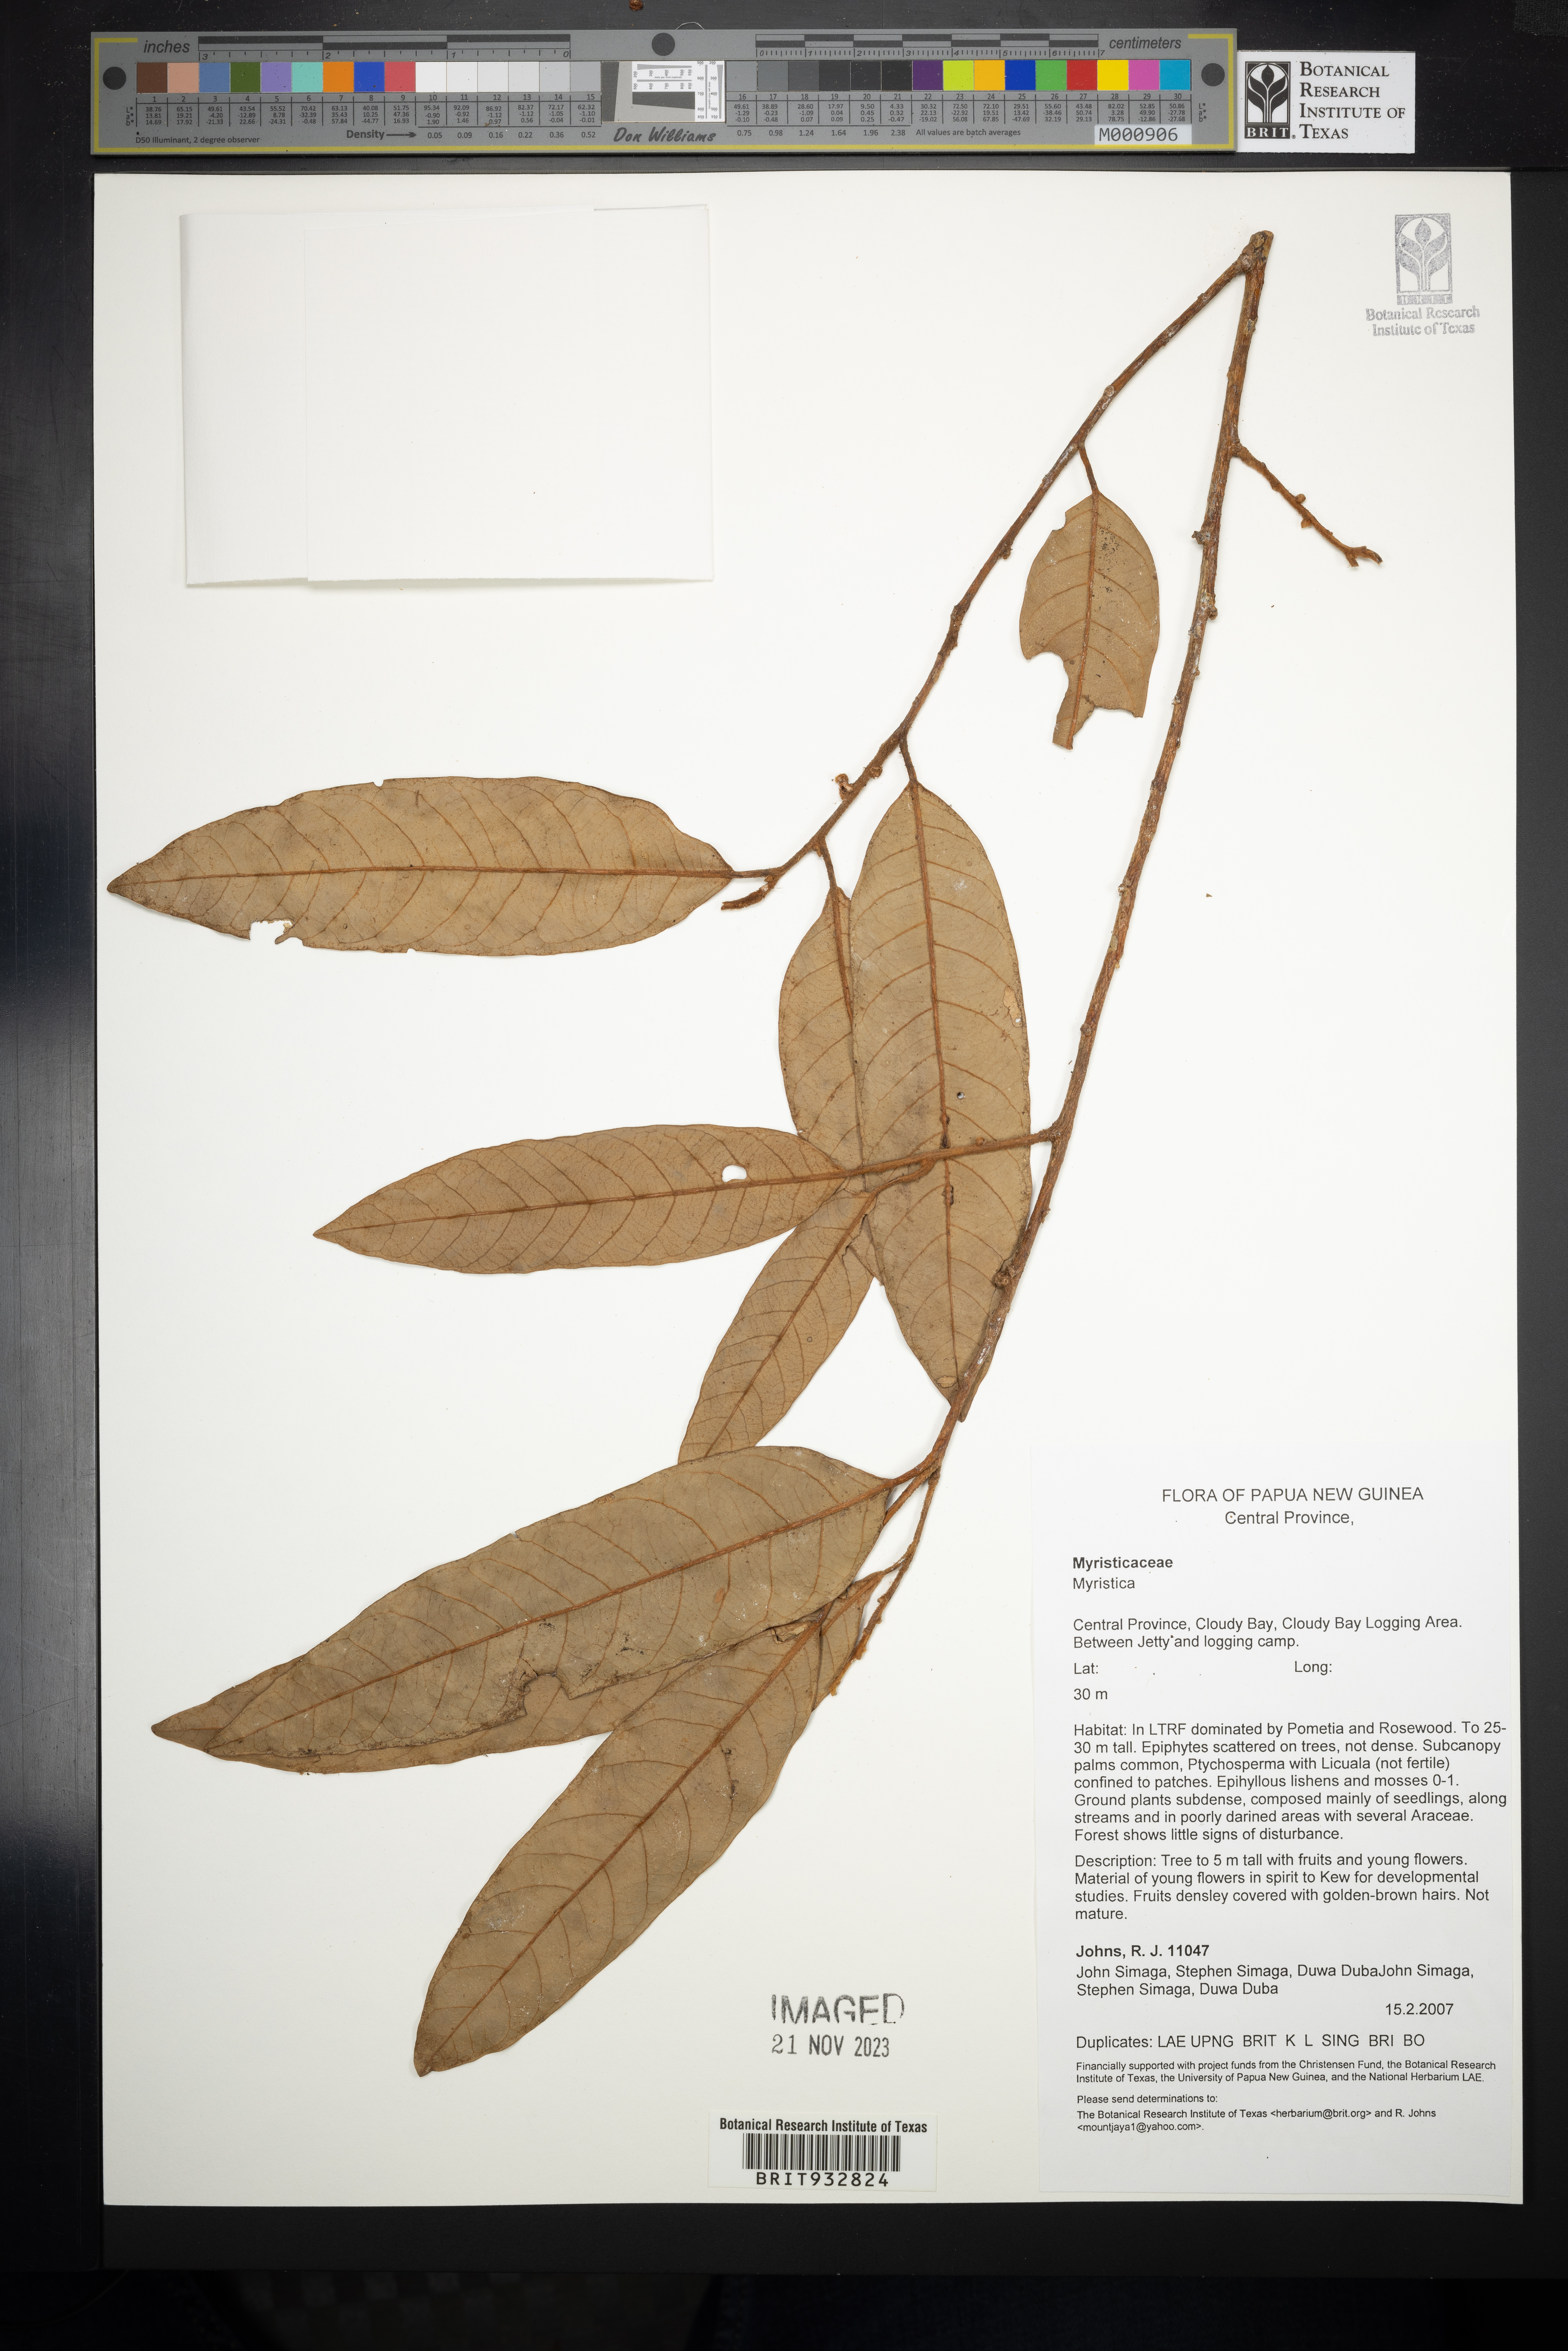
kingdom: Plantae
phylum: Tracheophyta
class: Magnoliopsida
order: Magnoliales
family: Myristicaceae
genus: Myristica
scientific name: Myristica
